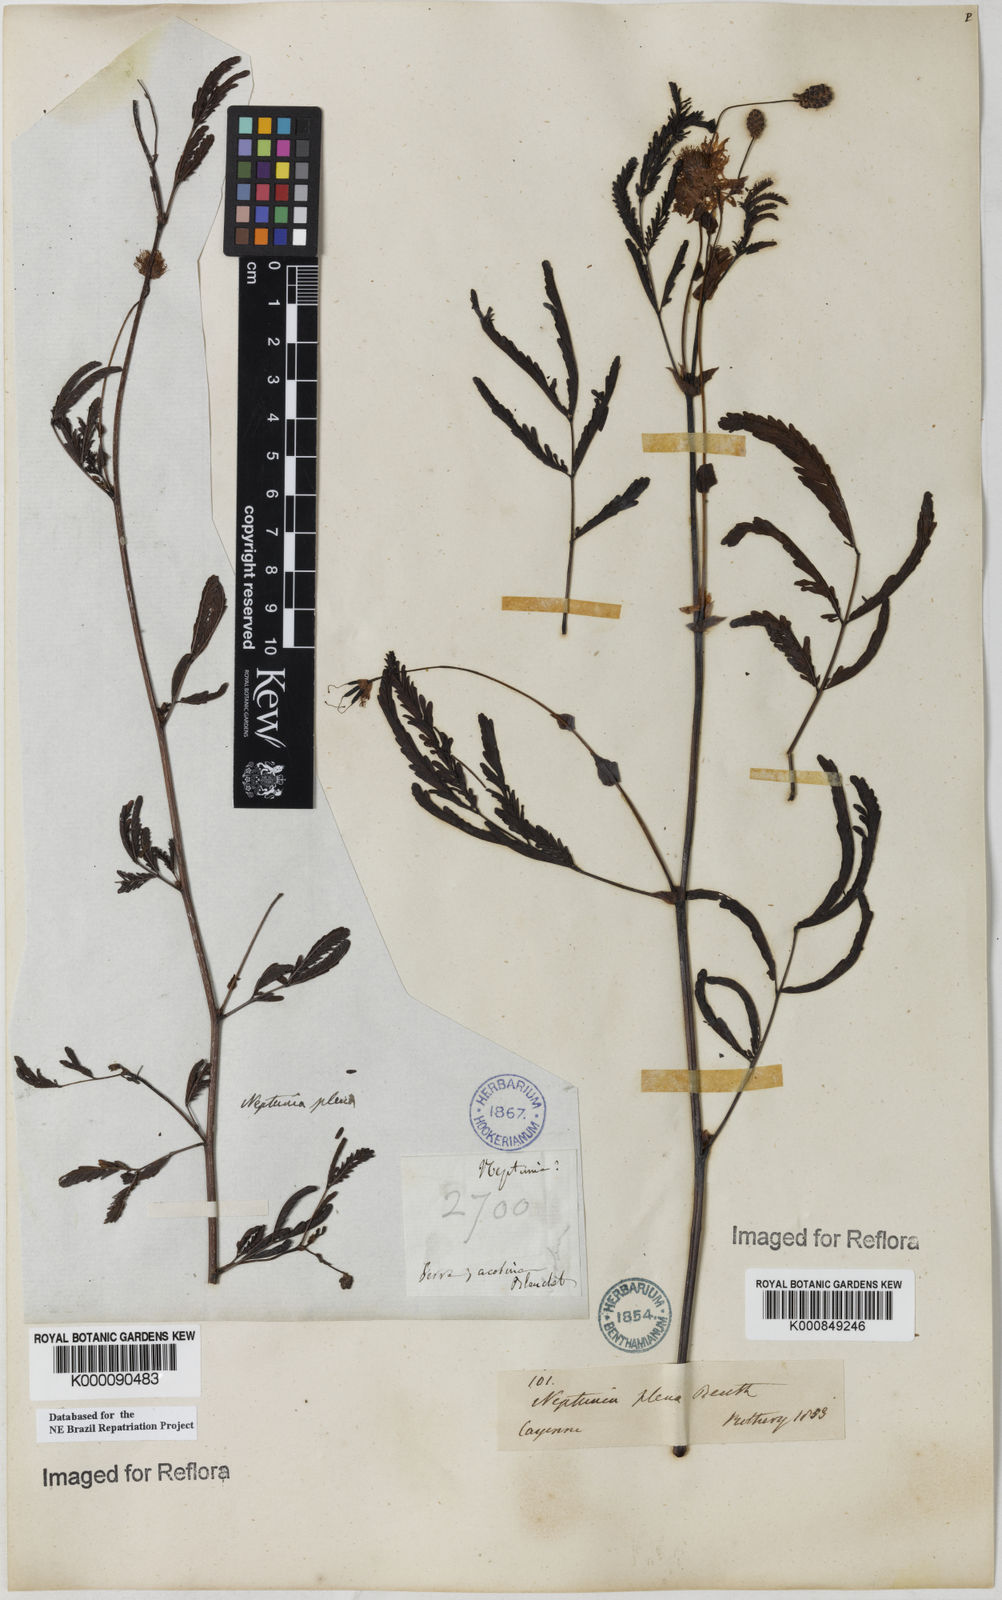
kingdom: Plantae
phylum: Tracheophyta
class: Magnoliopsida
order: Fabales
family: Fabaceae
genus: Neptunia
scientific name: Neptunia plena
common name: Dead and awake
